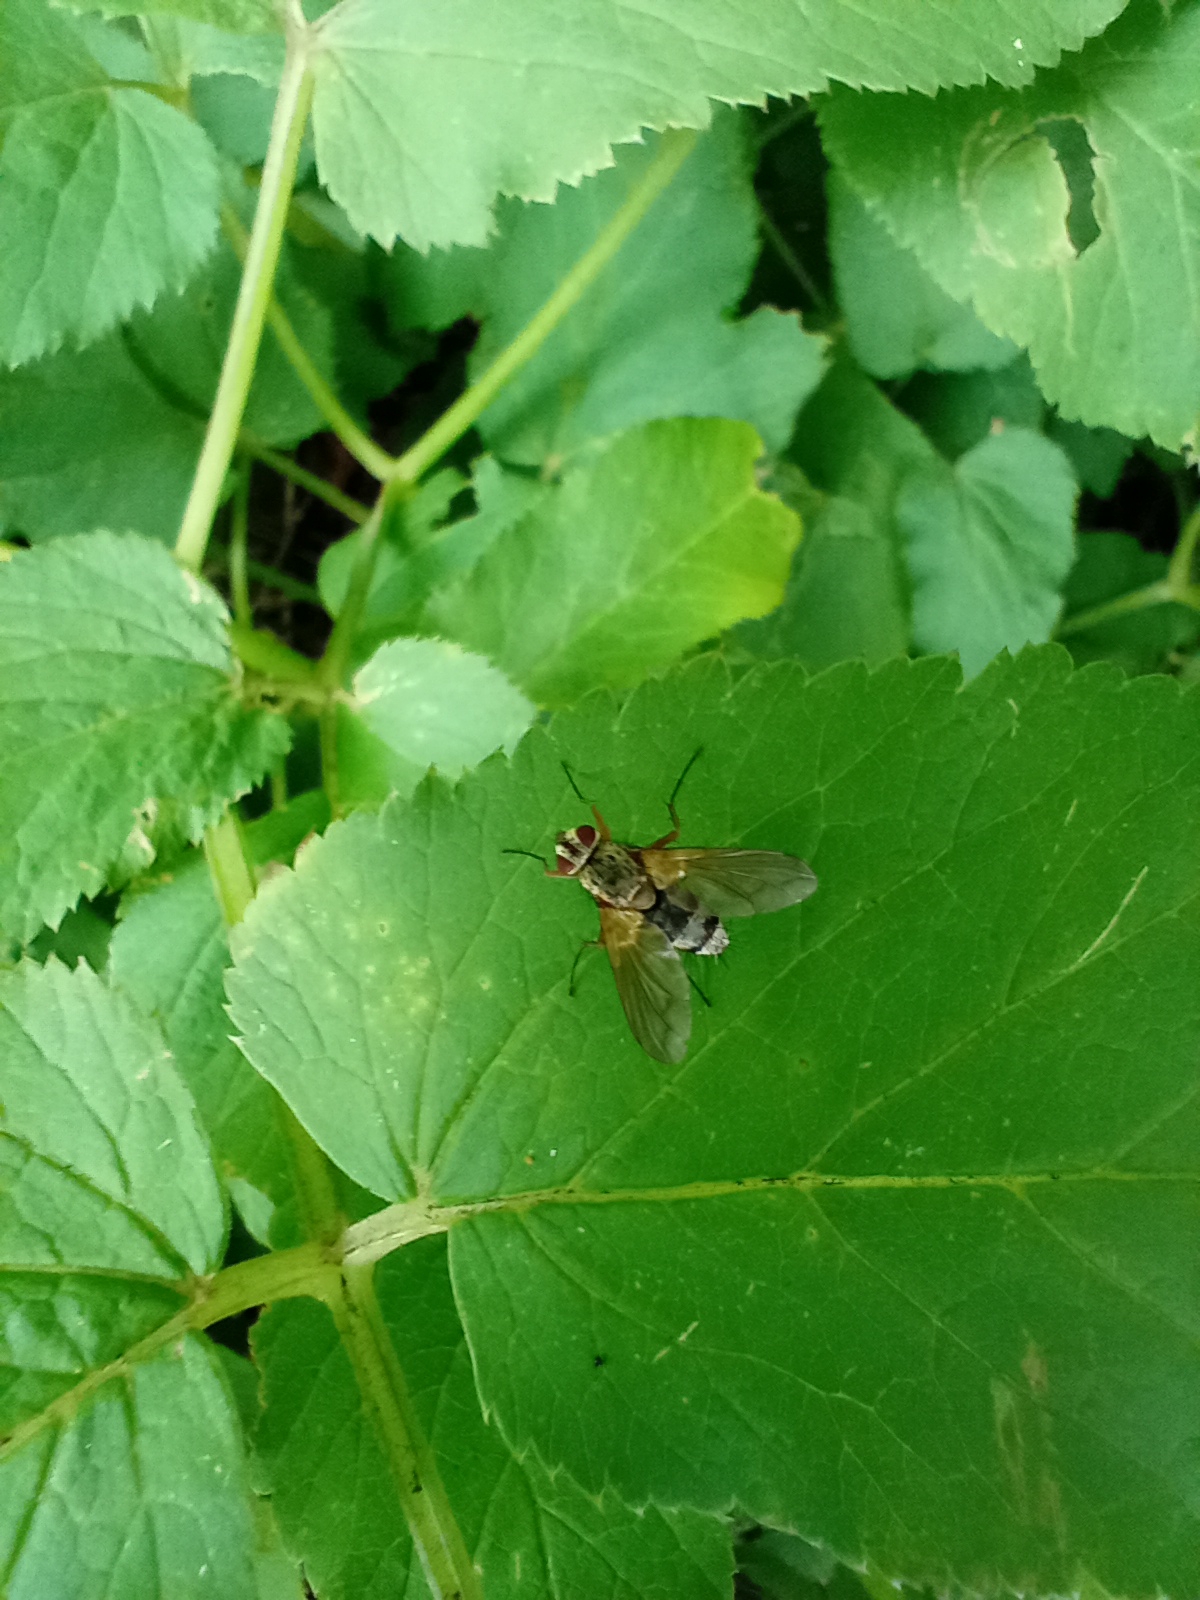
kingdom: Animalia
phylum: Arthropoda
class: Insecta
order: Diptera
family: Tachinidae
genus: Dexiosoma
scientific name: Dexiosoma caninum
